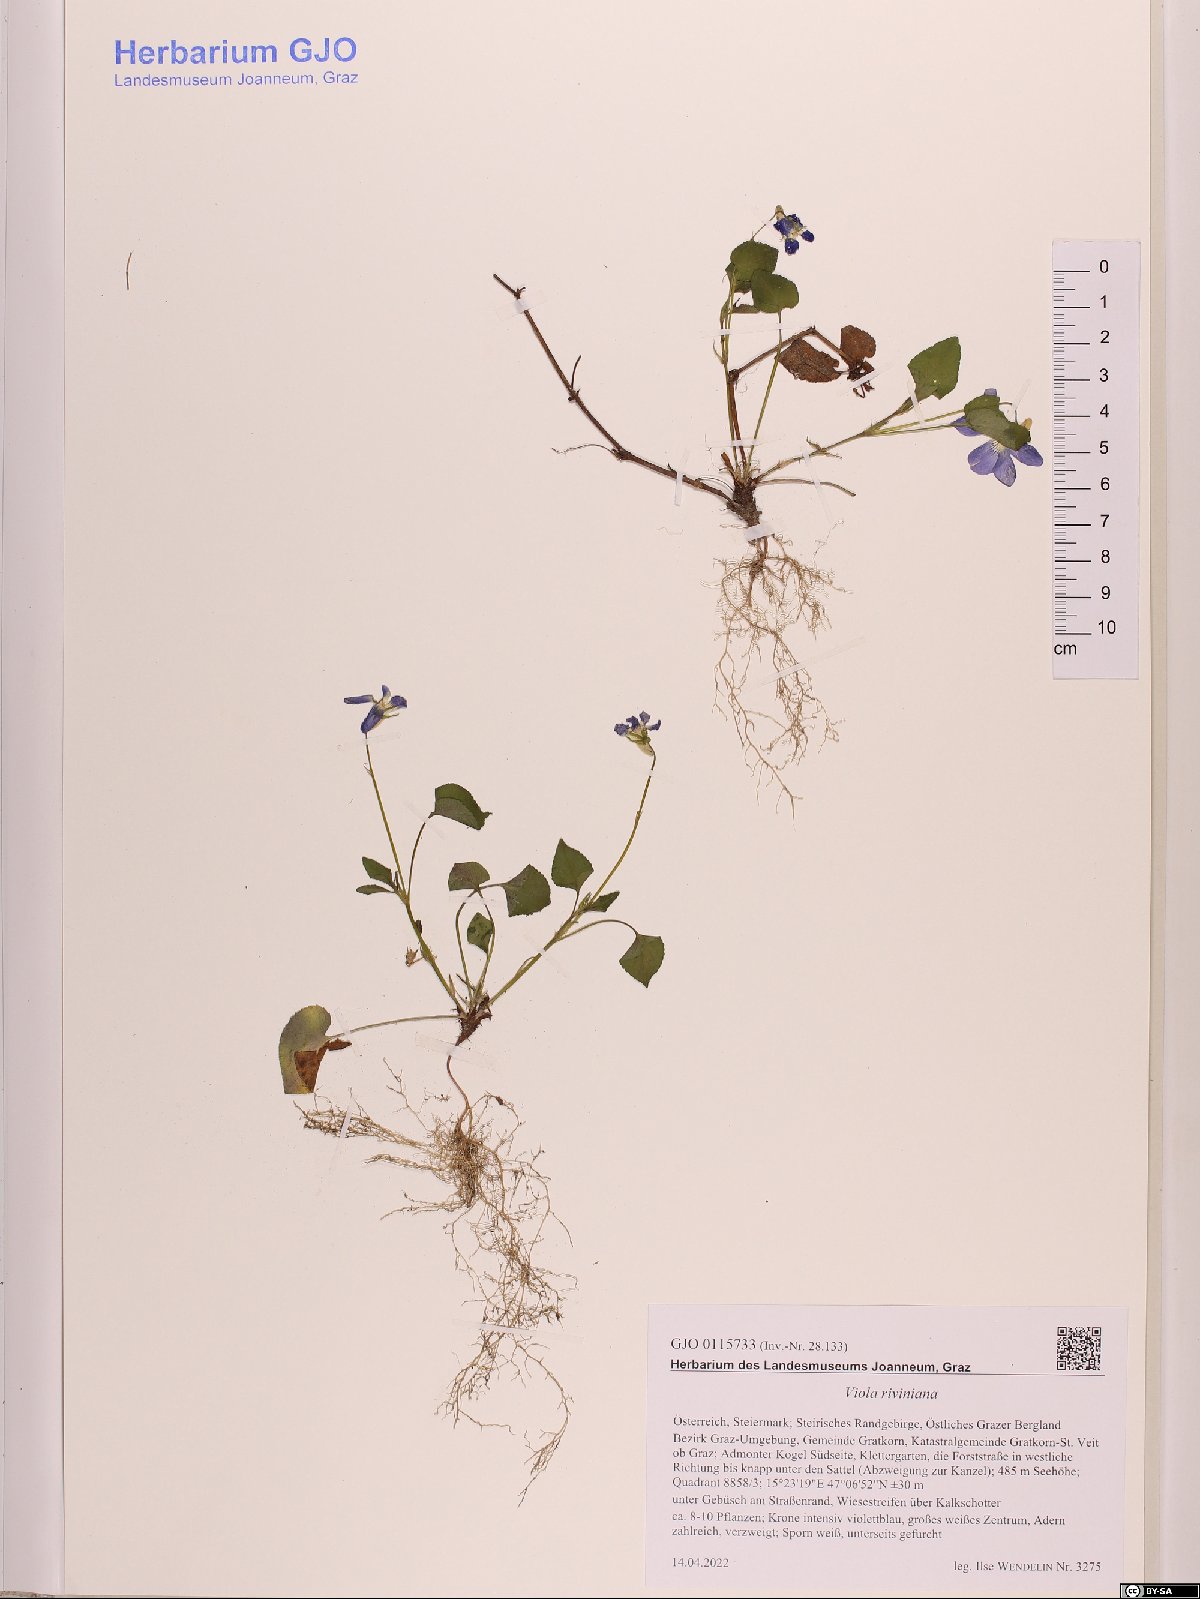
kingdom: Plantae
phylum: Tracheophyta
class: Magnoliopsida
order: Malpighiales
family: Violaceae
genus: Viola
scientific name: Viola riviniana
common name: Common dog-violet
